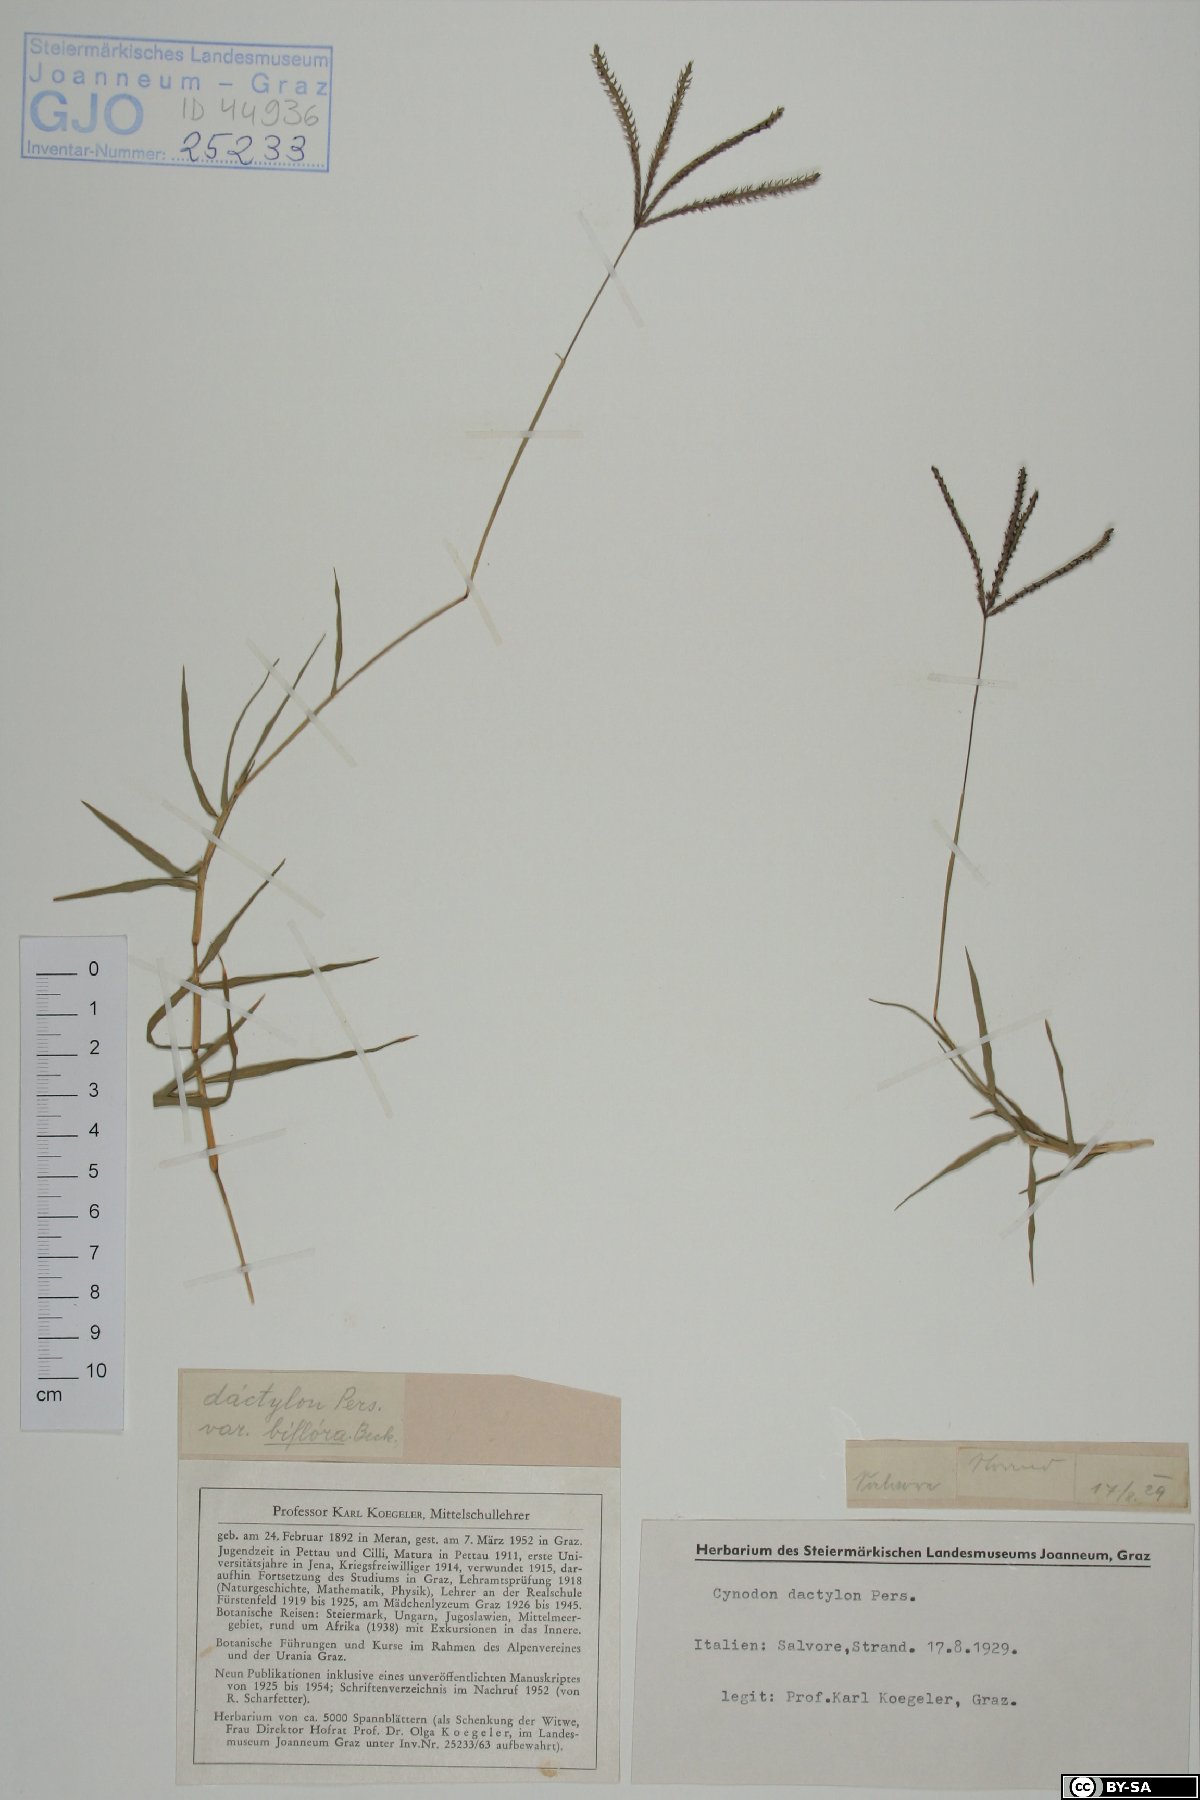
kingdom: Plantae
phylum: Tracheophyta
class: Liliopsida
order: Poales
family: Poaceae
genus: Cynodon
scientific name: Cynodon dactylon
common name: Bermuda grass
